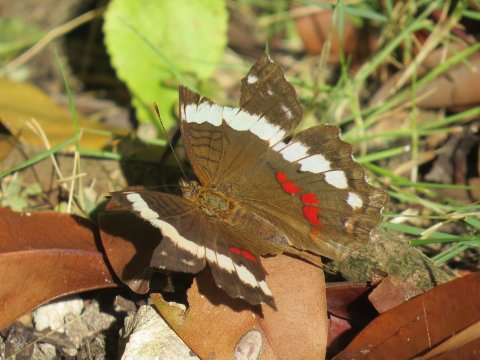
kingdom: Animalia
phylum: Arthropoda
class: Insecta
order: Lepidoptera
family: Nymphalidae
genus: Anartia
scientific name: Anartia fatima
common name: Banded Peacock
